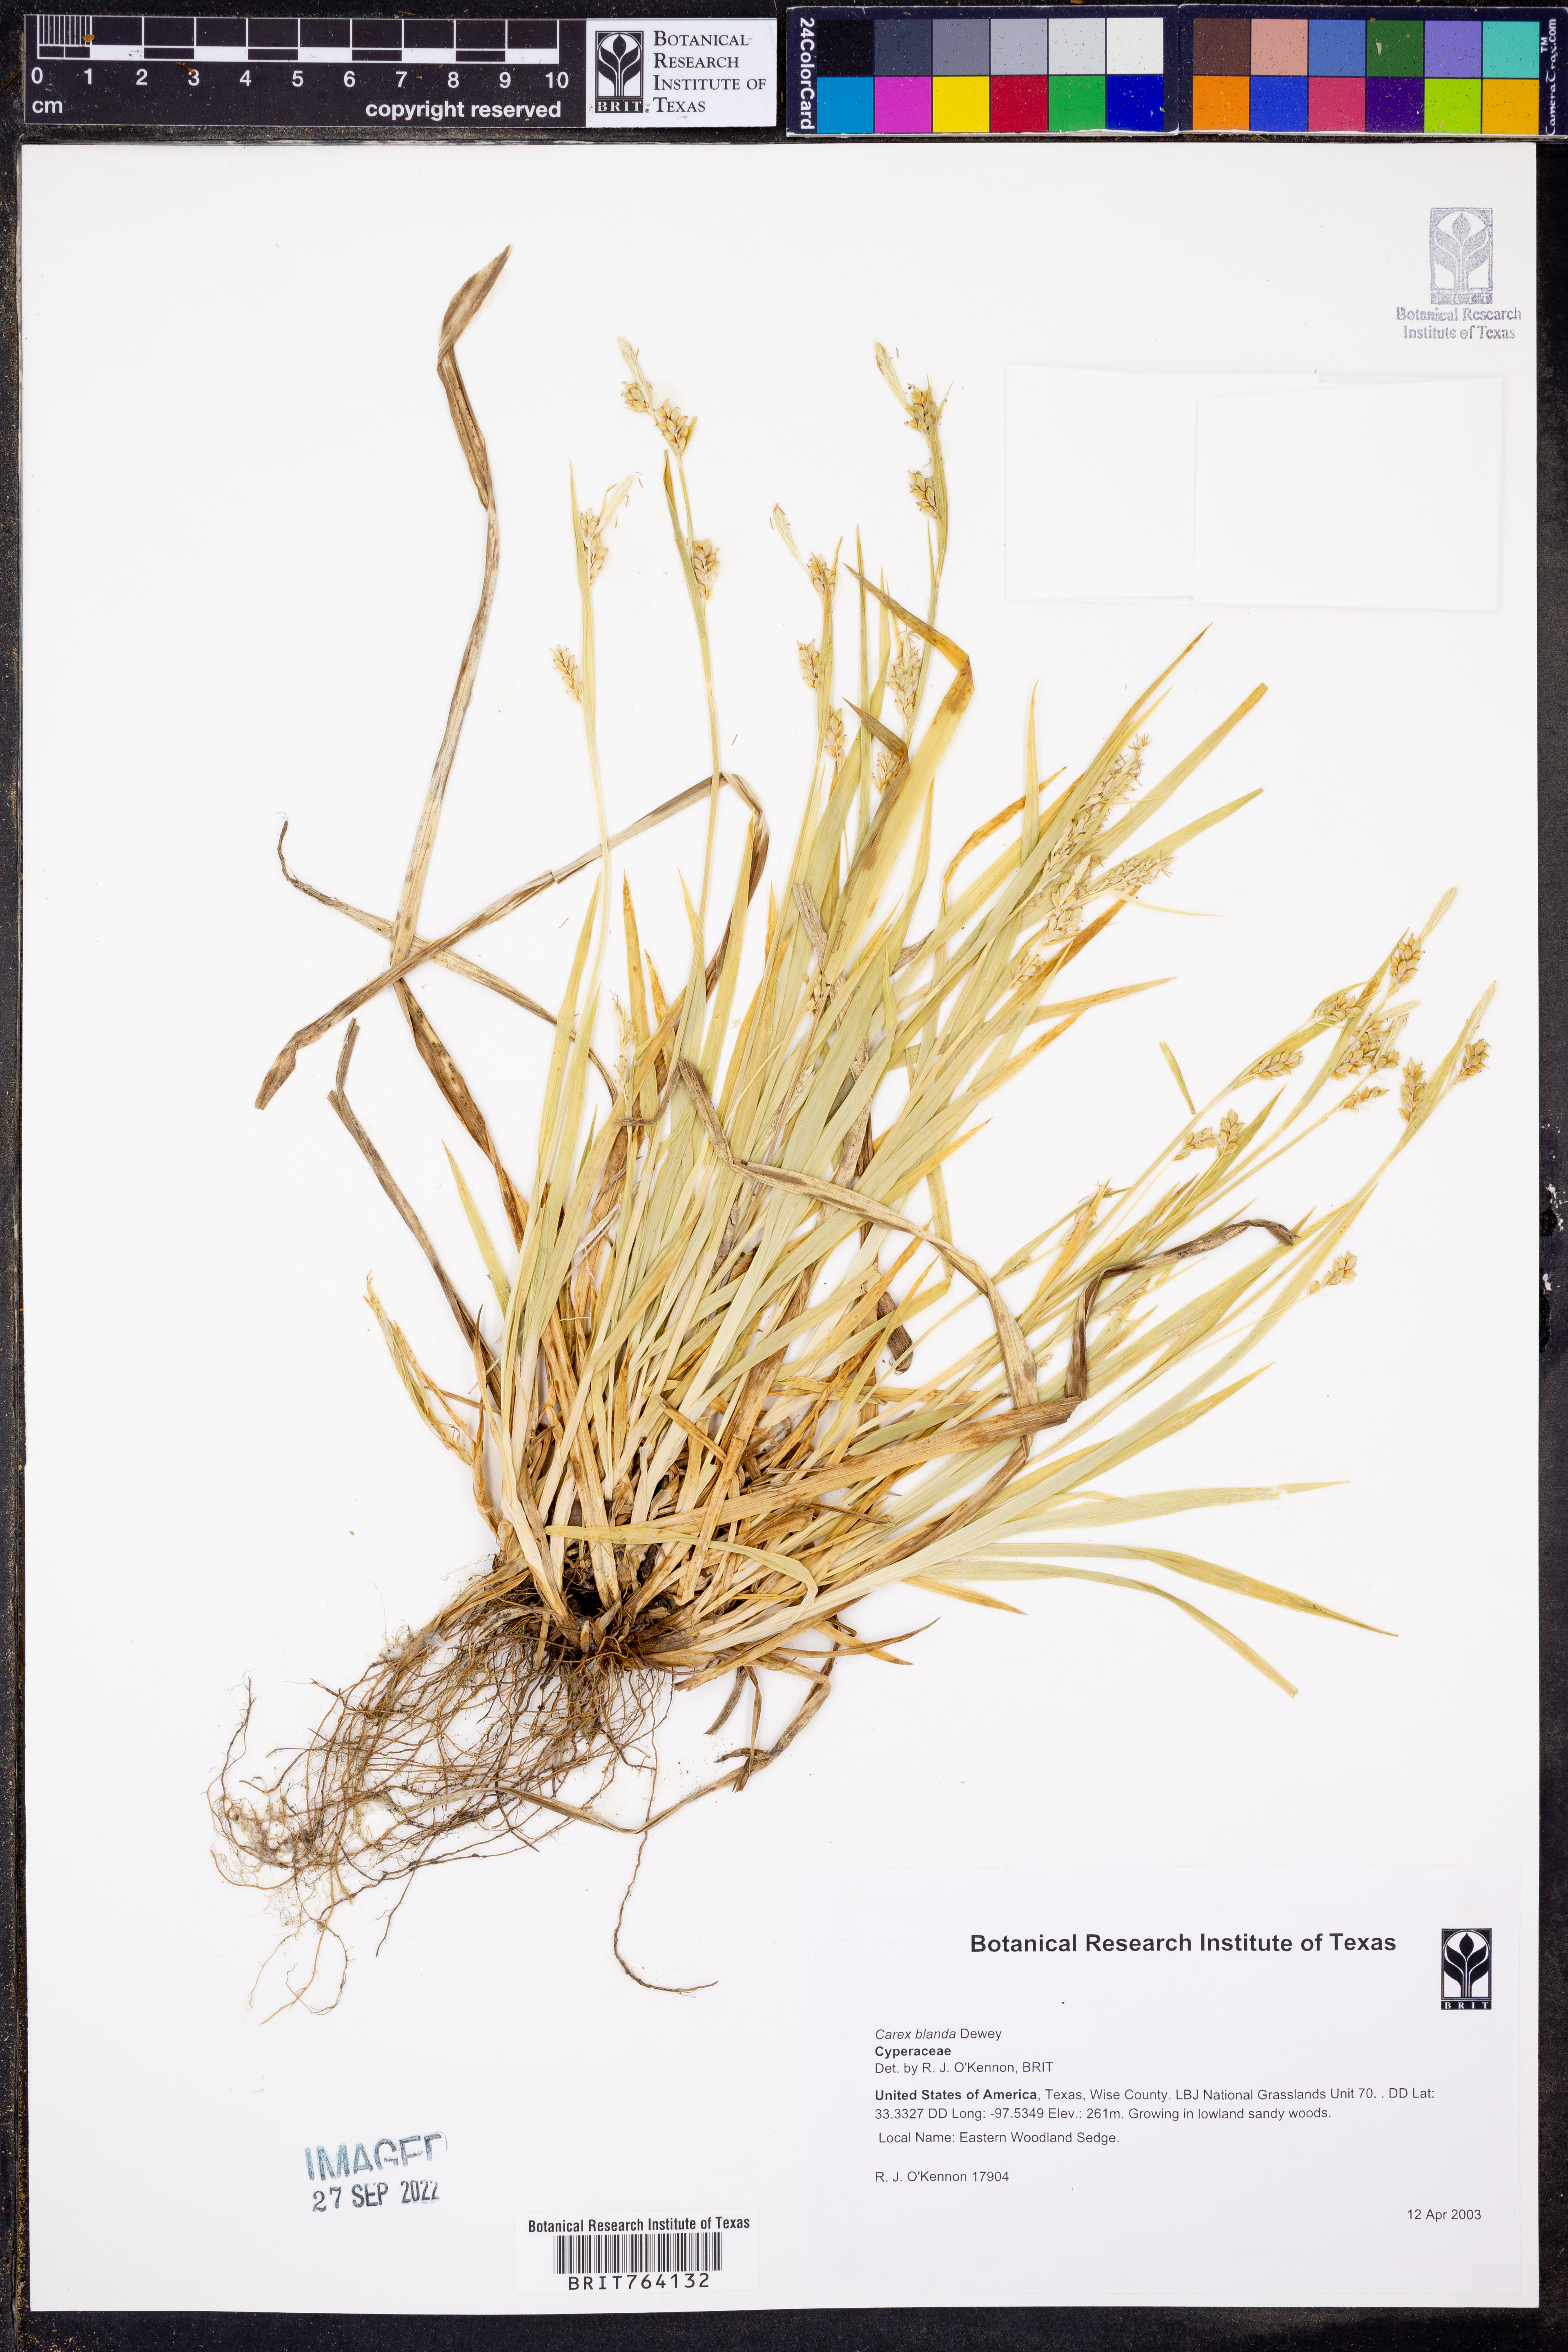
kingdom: Plantae
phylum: Tracheophyta
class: Liliopsida
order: Poales
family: Cyperaceae
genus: Carex
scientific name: Carex blanda
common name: Bland sedge
